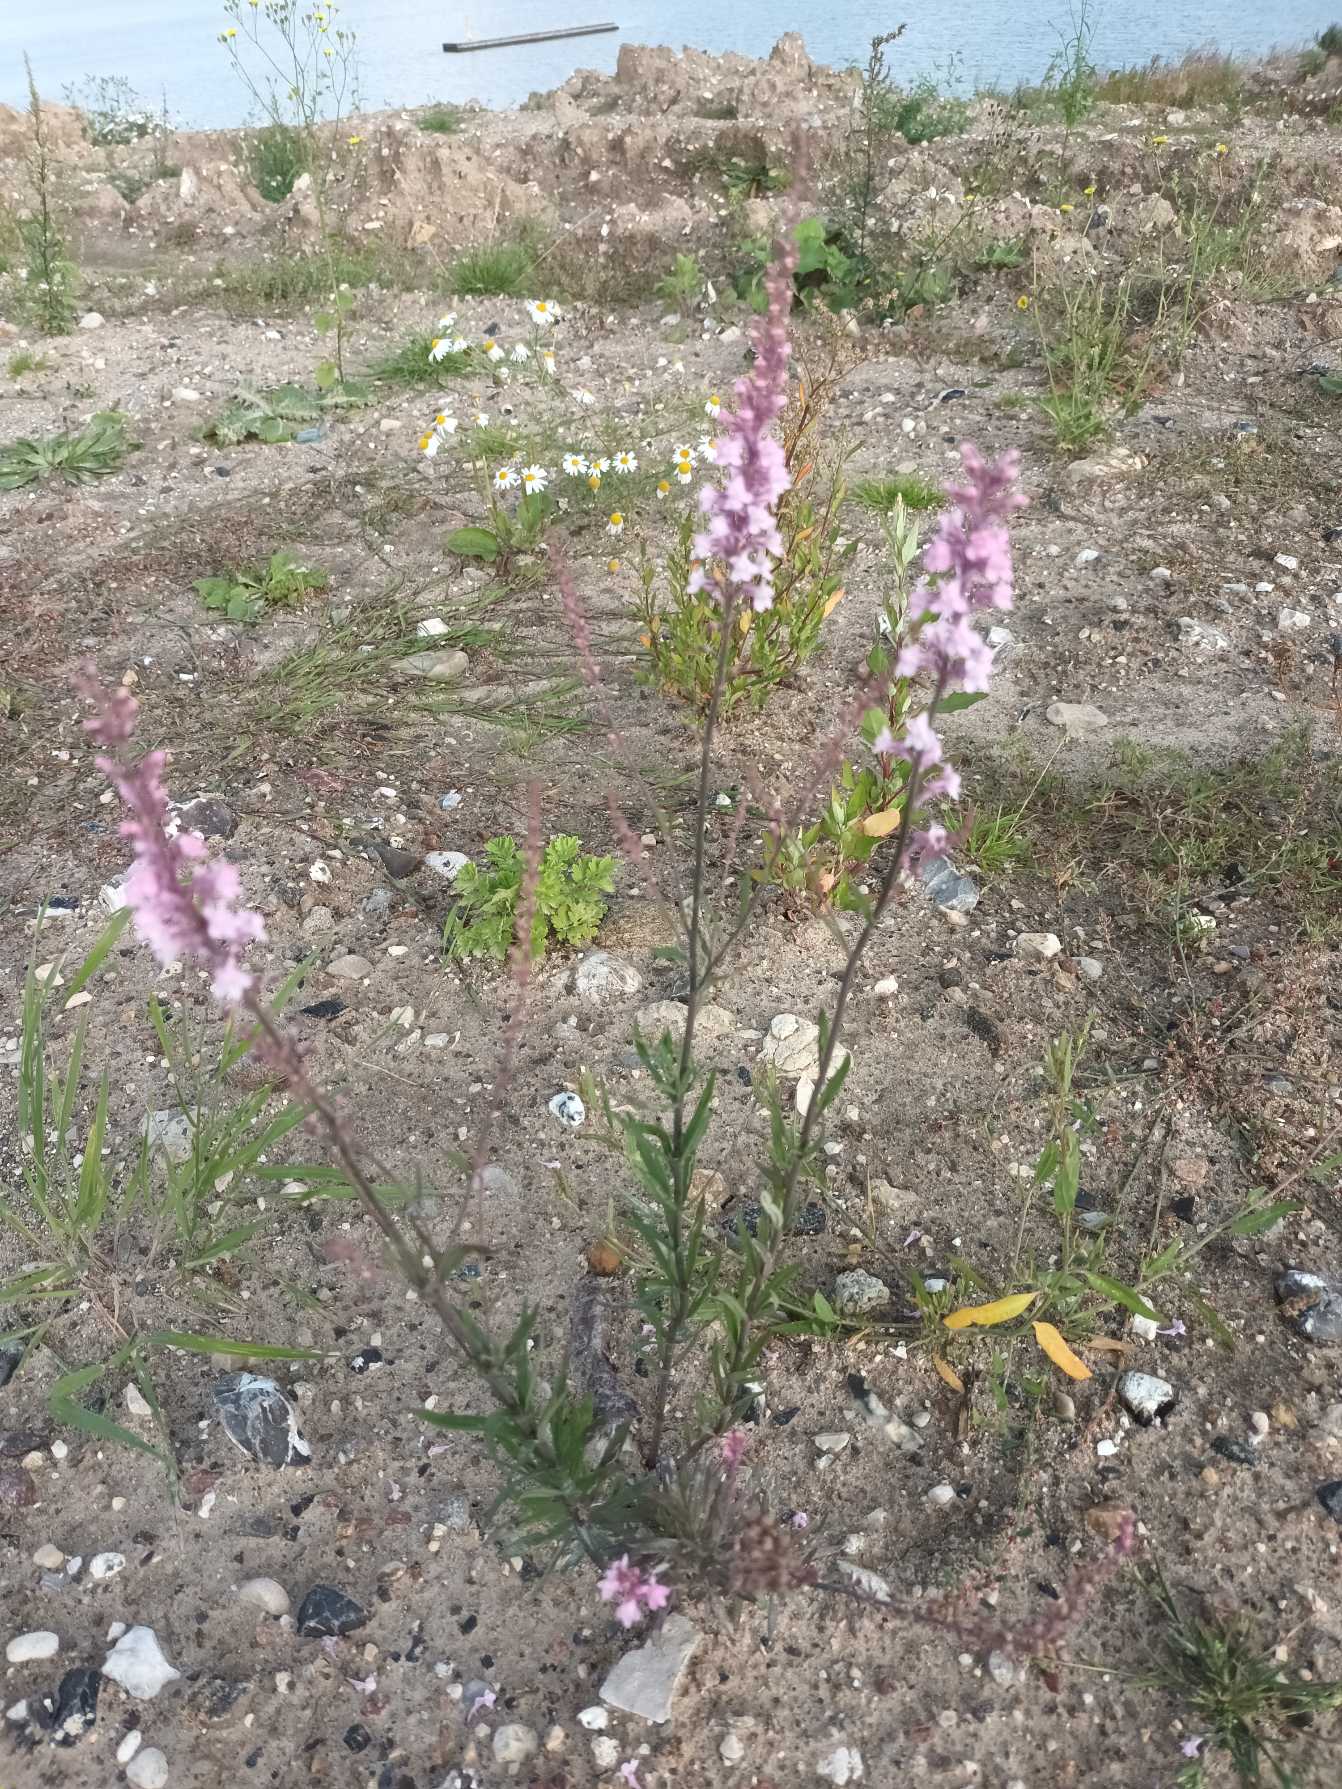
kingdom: Plantae
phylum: Tracheophyta
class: Magnoliopsida
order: Lamiales
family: Plantaginaceae
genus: Linaria
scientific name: Linaria purpurea
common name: Purpur-torskemund
